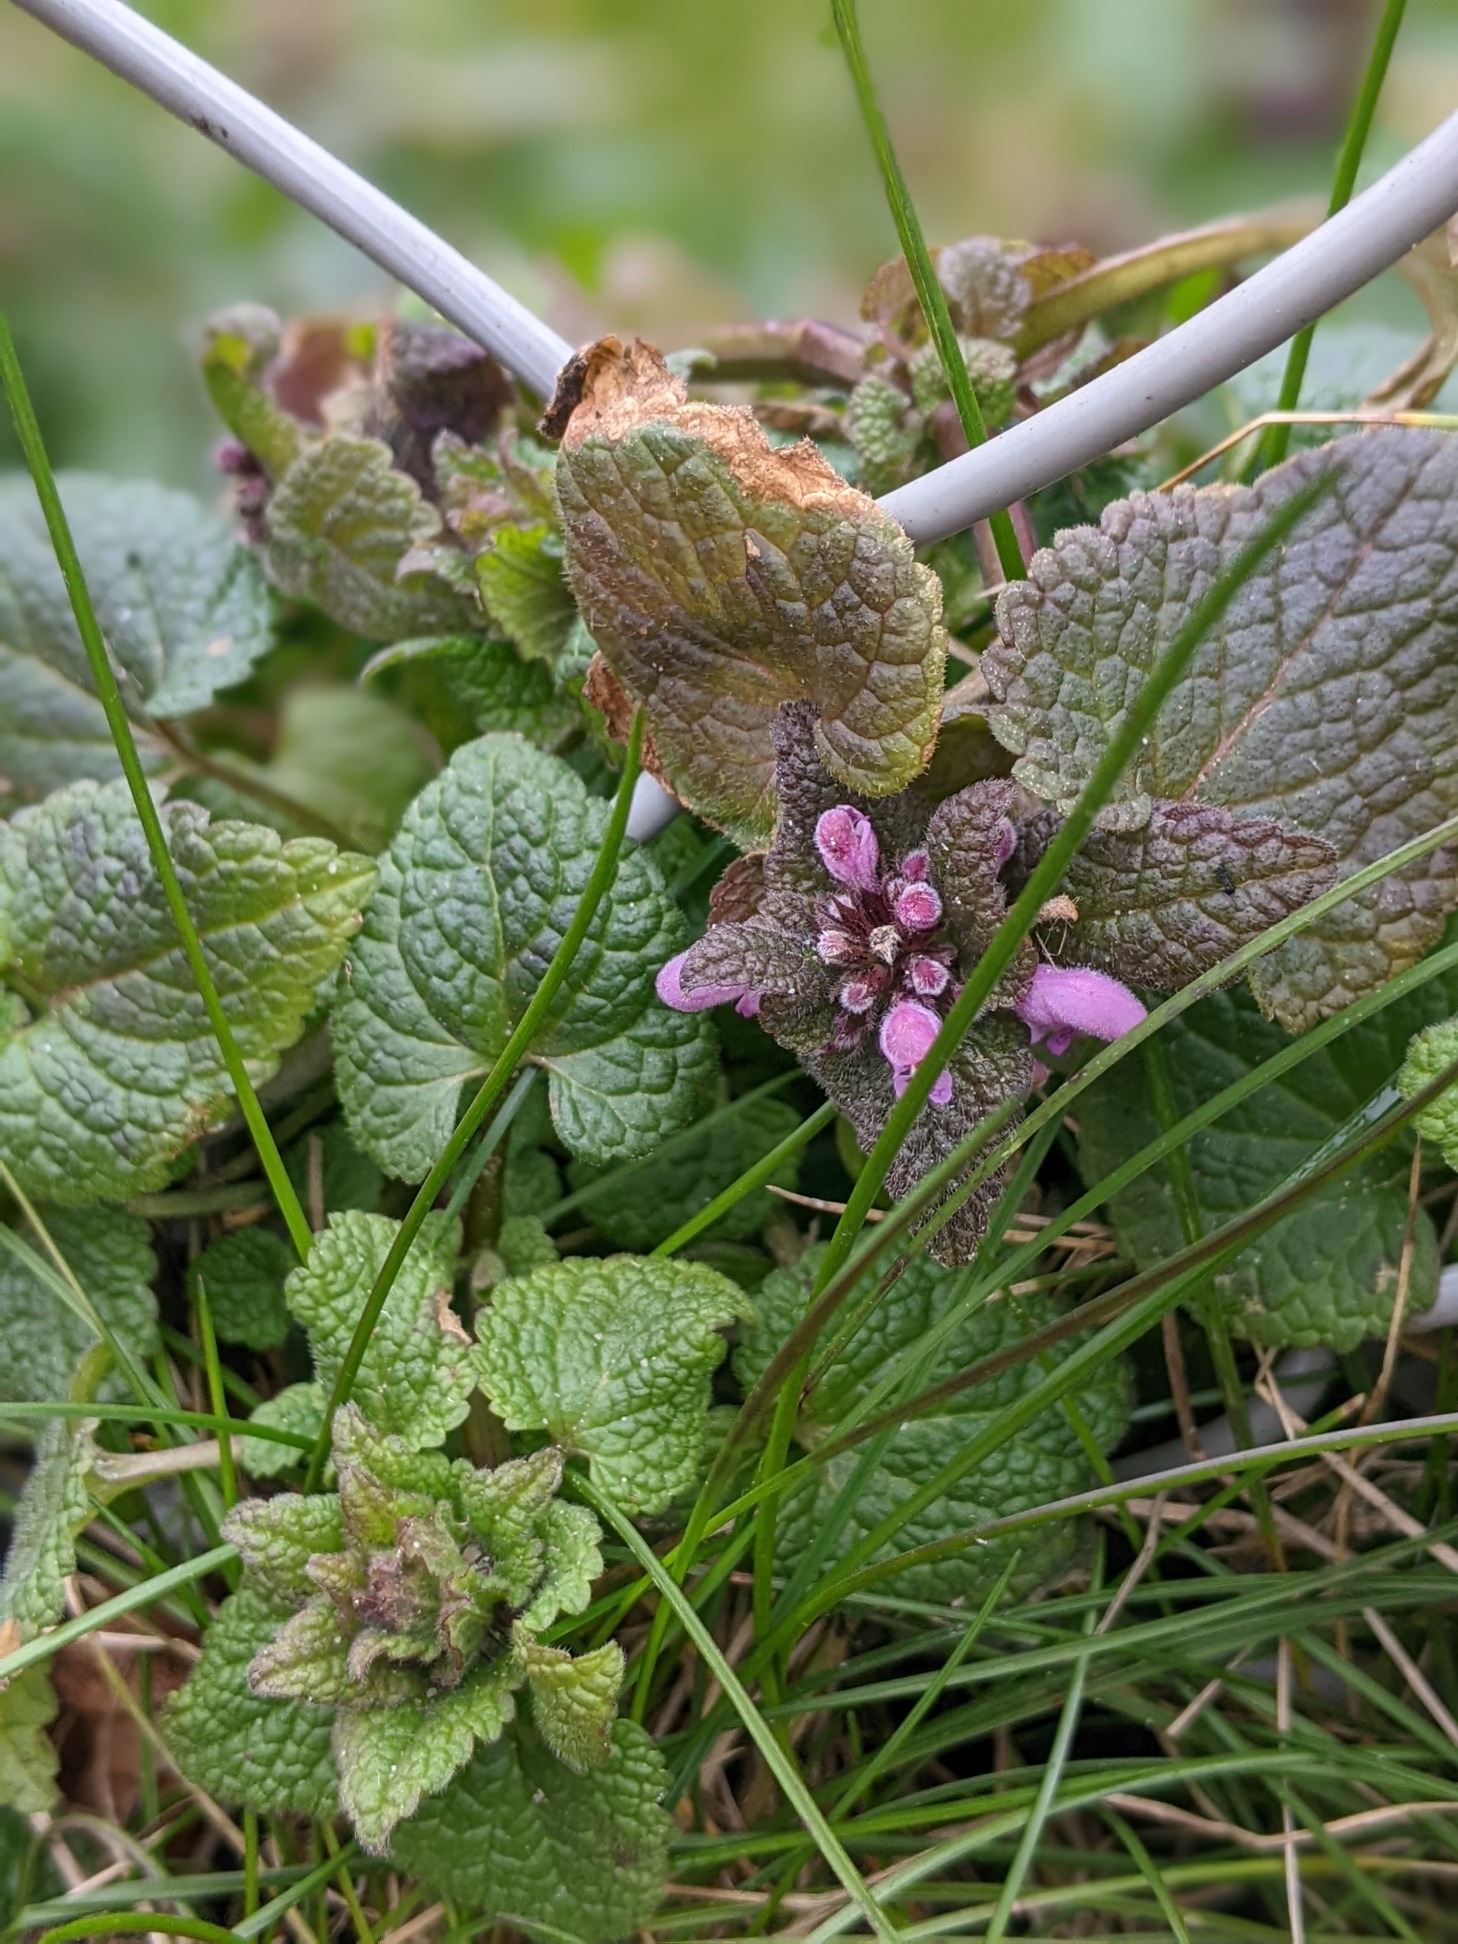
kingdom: Plantae
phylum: Tracheophyta
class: Magnoliopsida
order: Lamiales
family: Lamiaceae
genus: Lamium
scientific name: Lamium purpureum
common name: Rød tvetand
